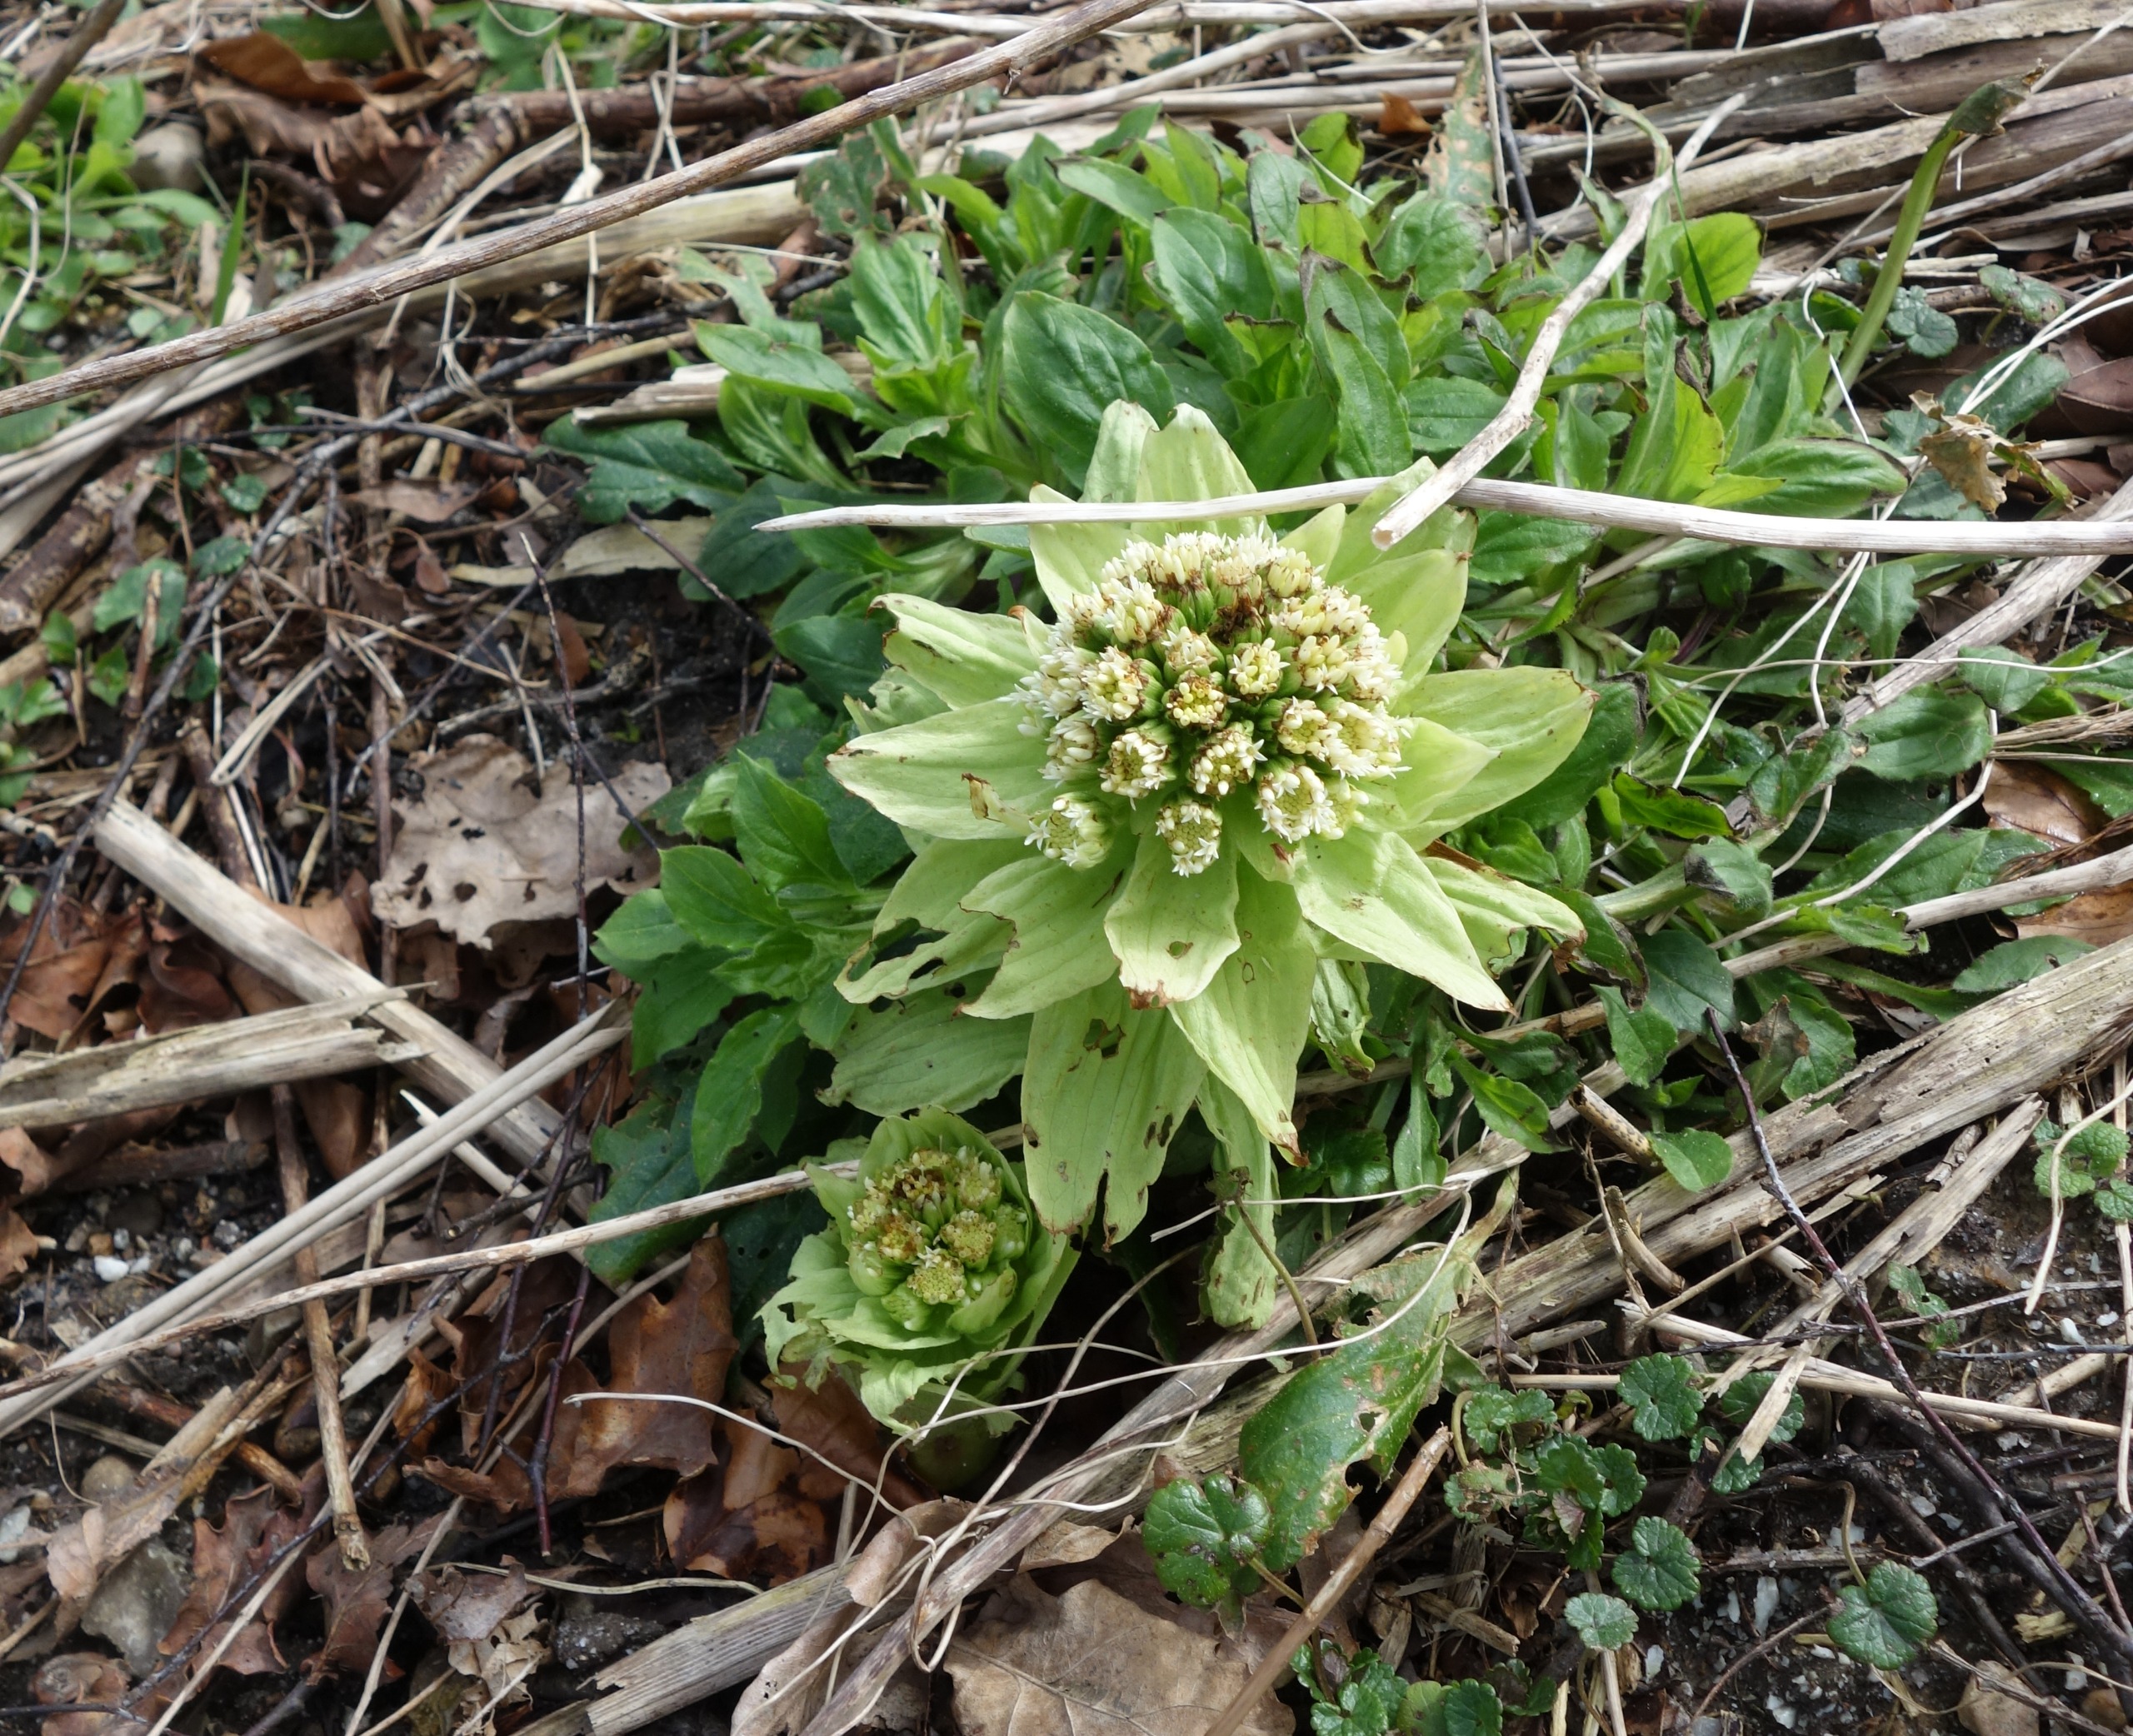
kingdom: Plantae
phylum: Tracheophyta
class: Magnoliopsida
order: Asterales
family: Asteraceae
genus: Petasites
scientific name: Petasites japonicus
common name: Japansk hestehov
